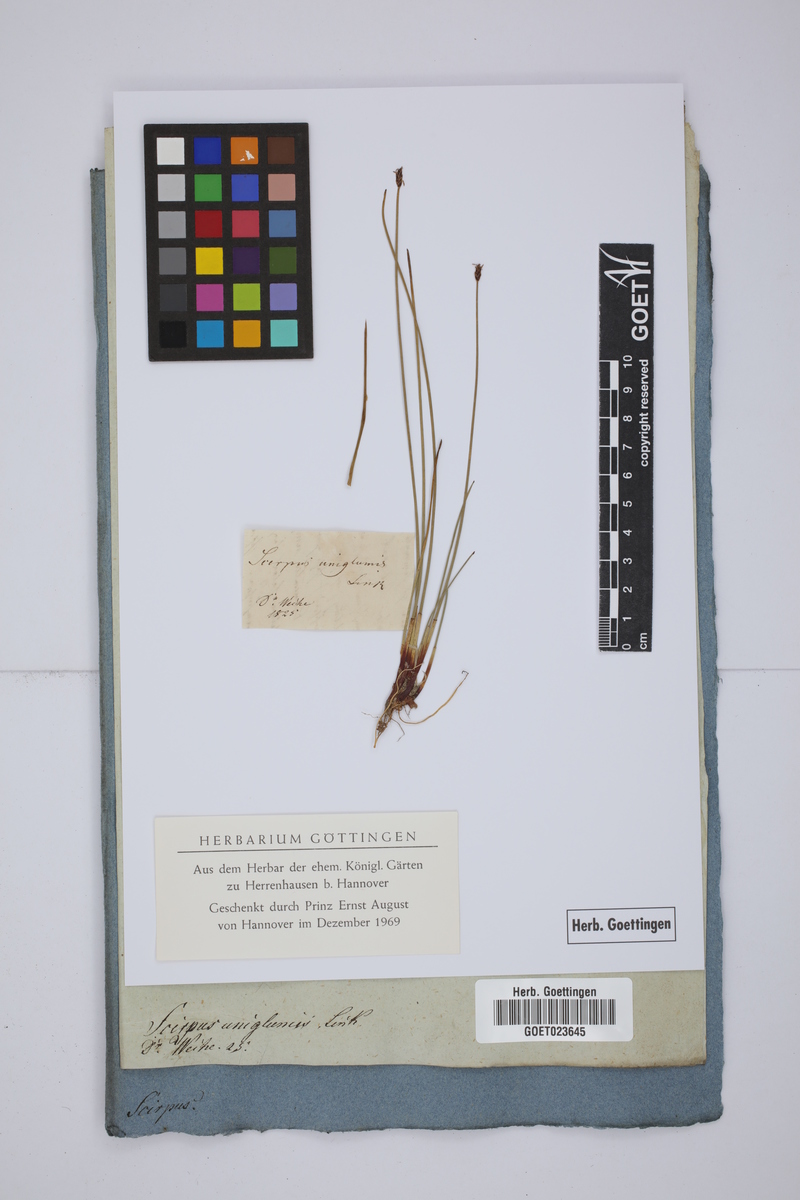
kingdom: Plantae
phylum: Tracheophyta
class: Liliopsida
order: Poales
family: Cyperaceae
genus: Eleocharis
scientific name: Eleocharis uniglumis
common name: Slender spike-rush
